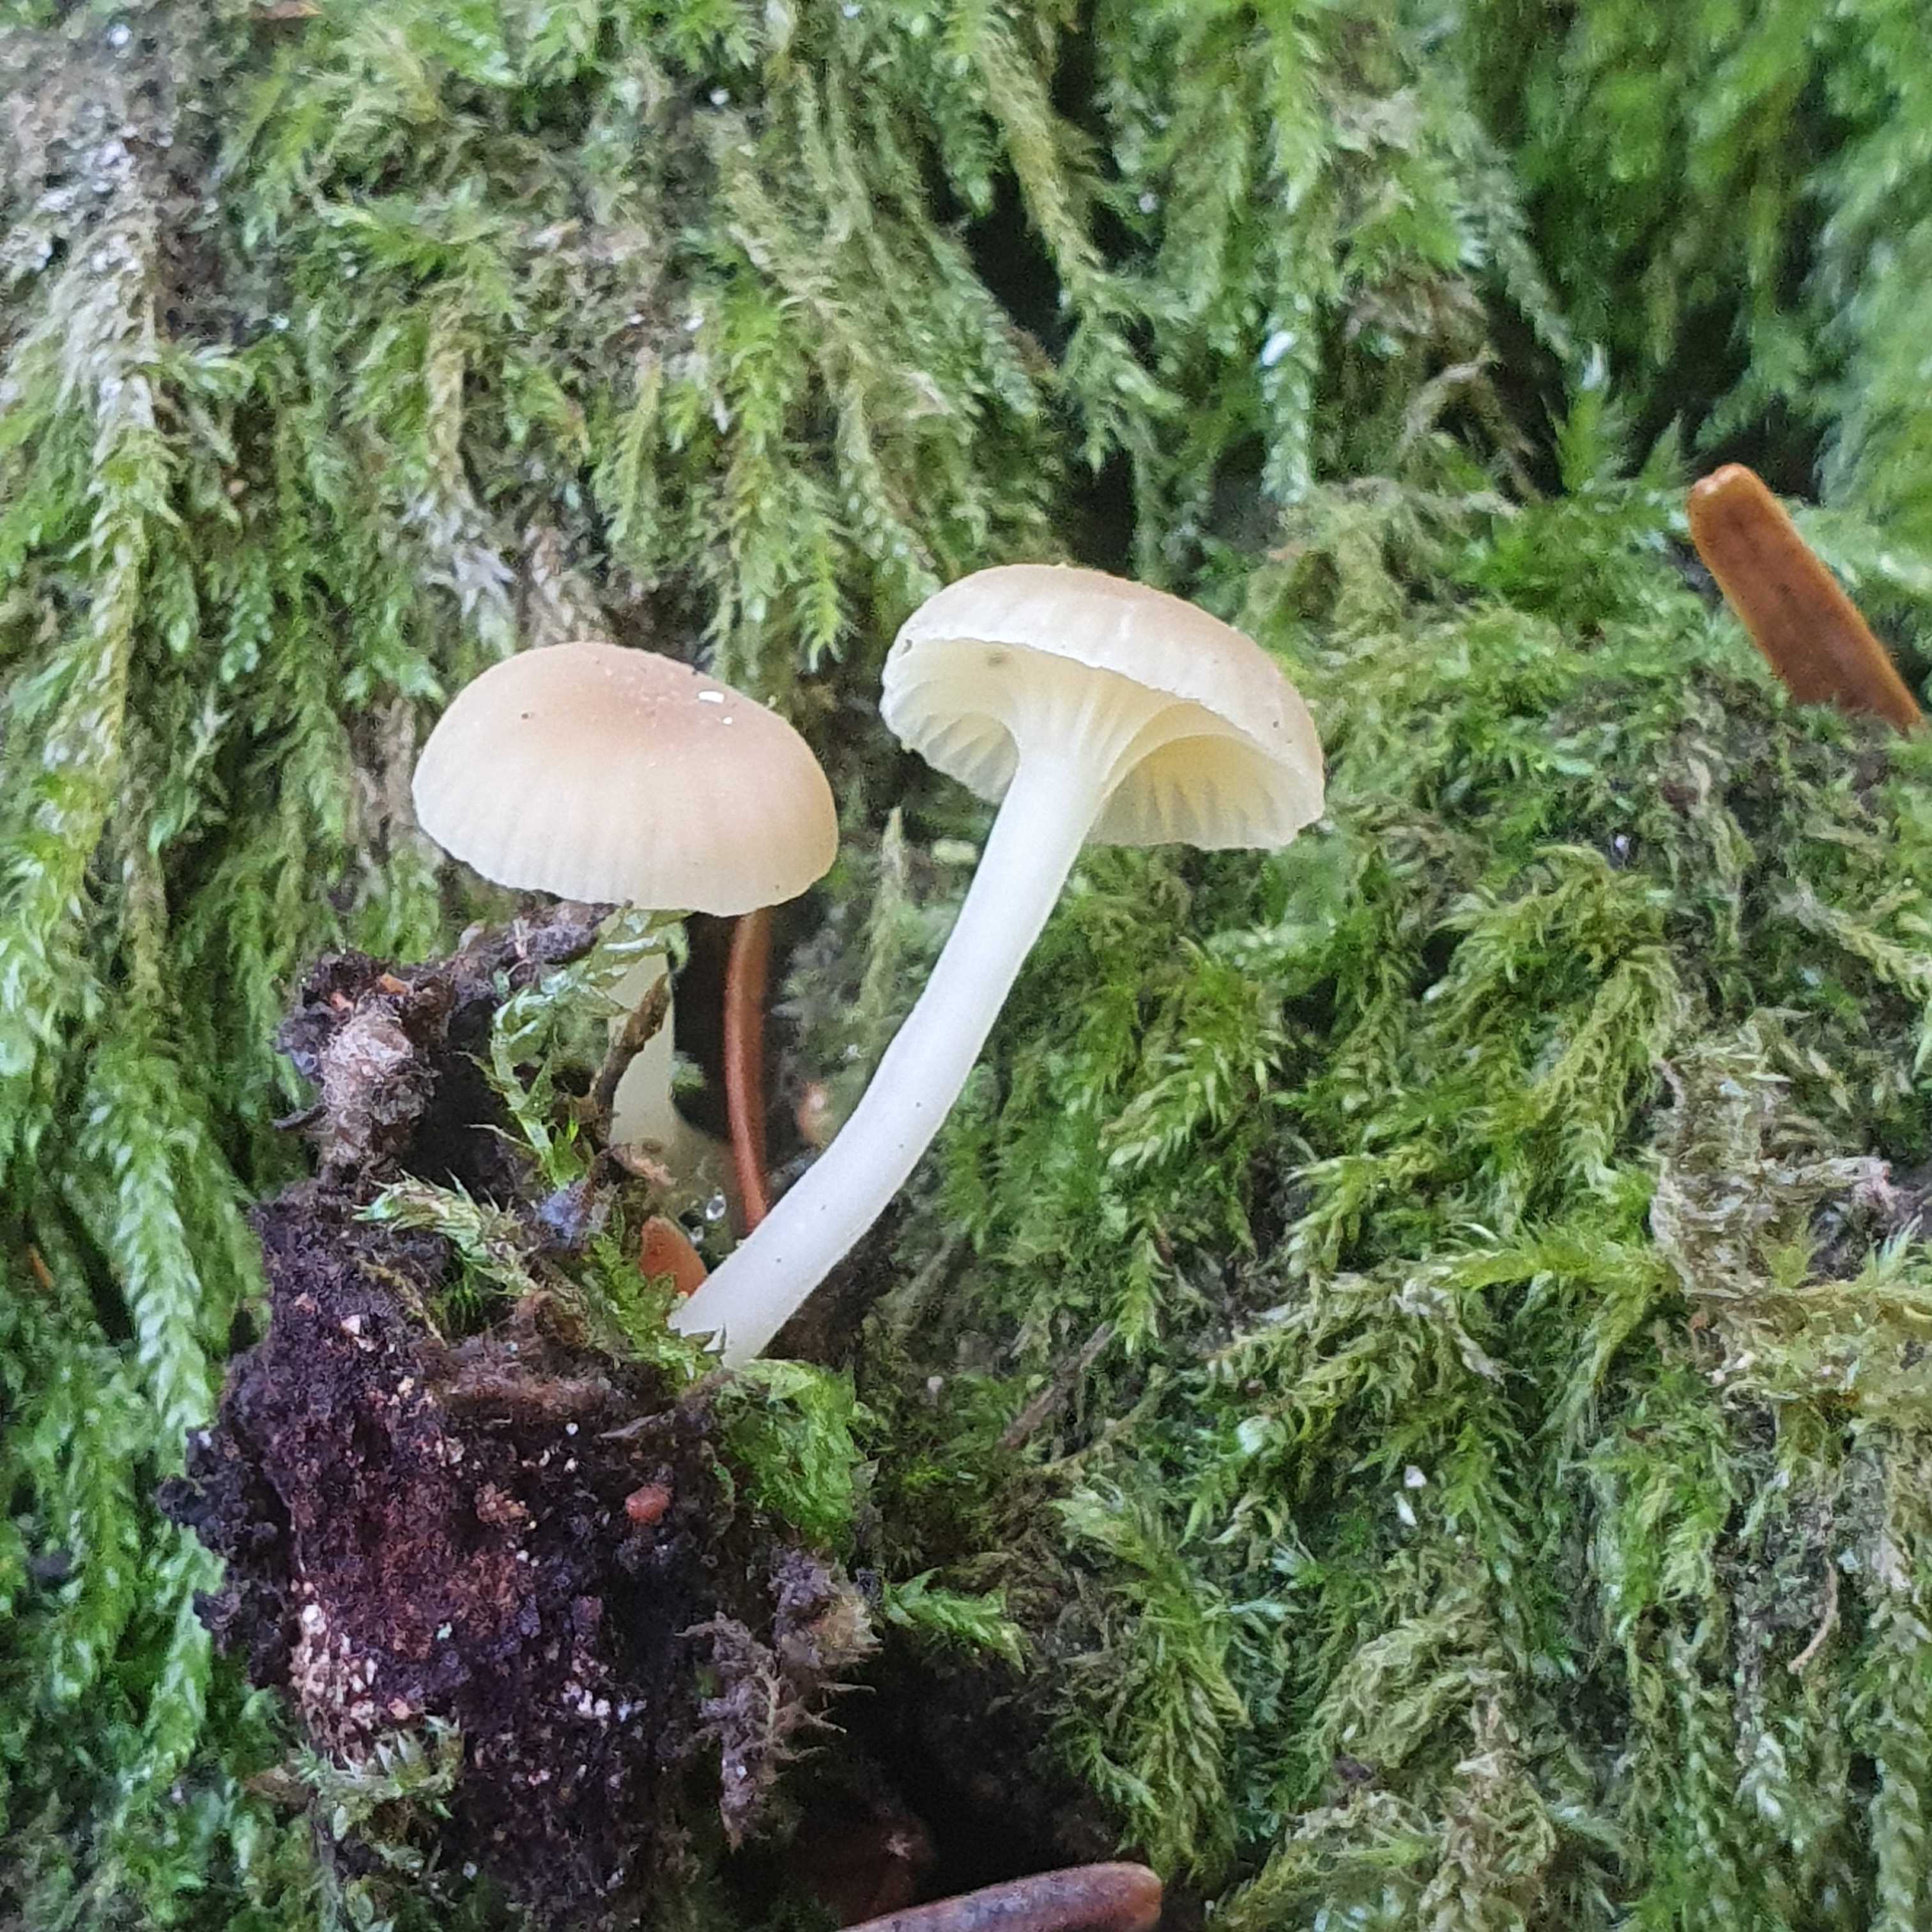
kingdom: Fungi
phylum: Basidiomycota
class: Agaricomycetes
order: Agaricales
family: Hygrophoraceae
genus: Chrysomphalina
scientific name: Chrysomphalina grossula
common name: stød-gyldenblad
